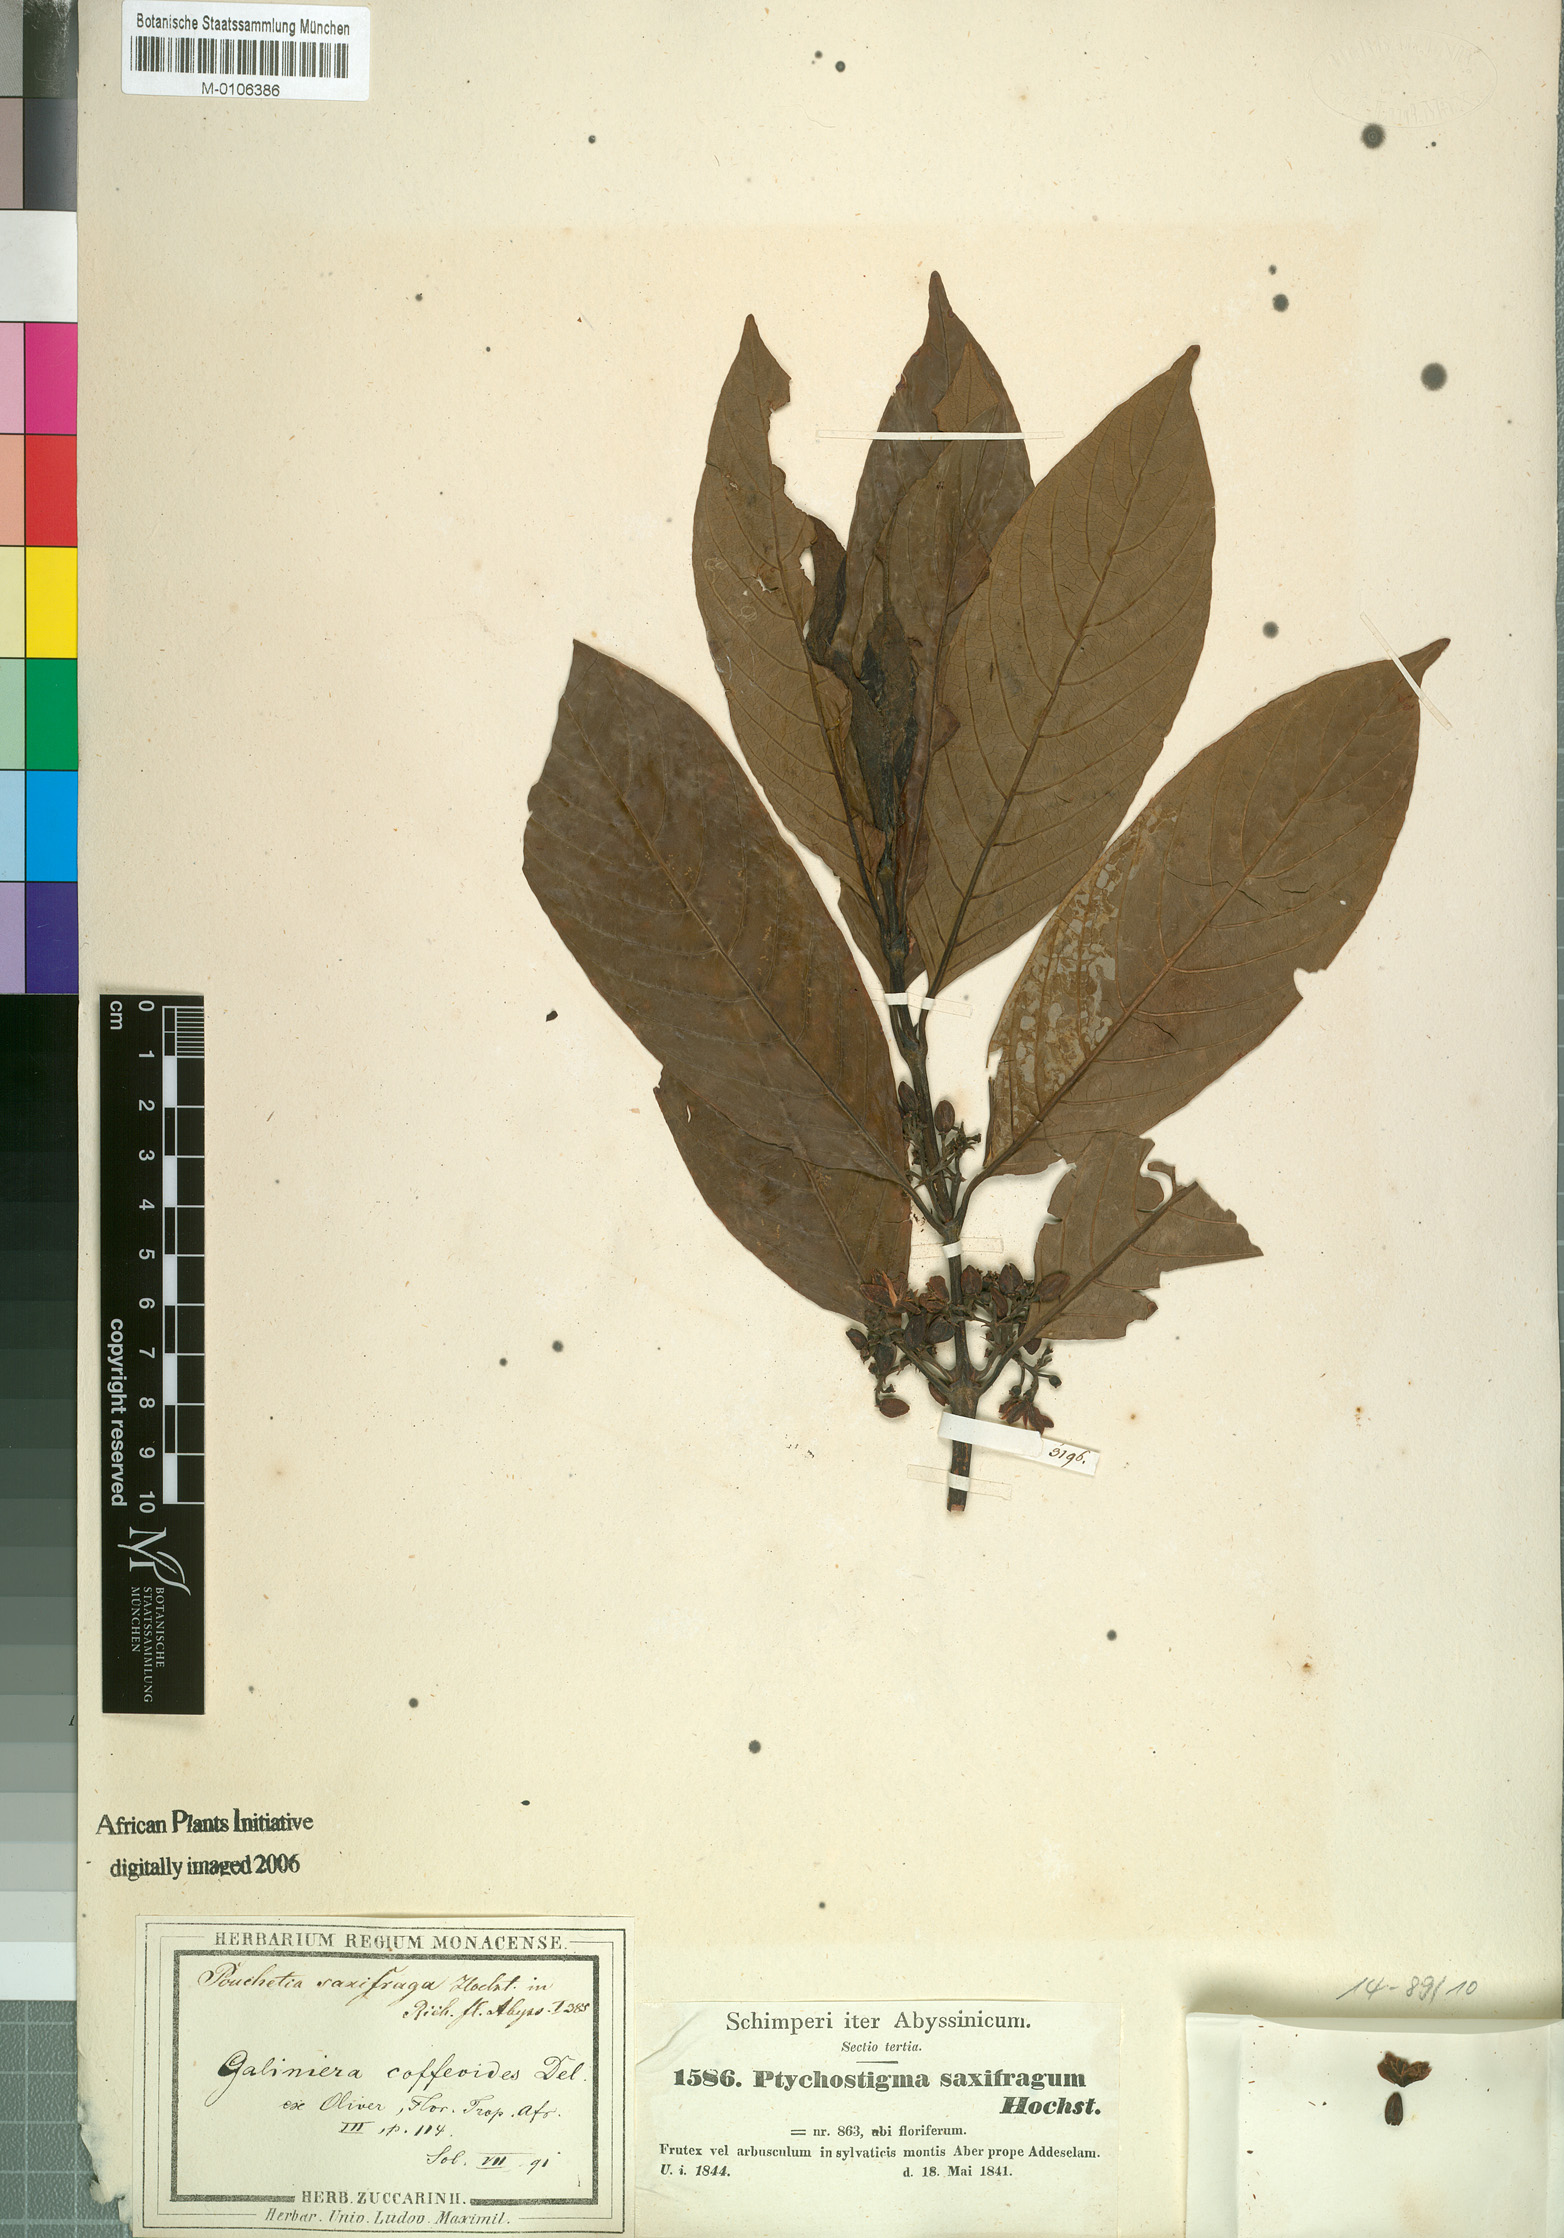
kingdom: Plantae
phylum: Tracheophyta
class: Magnoliopsida
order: Gentianales
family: Rubiaceae
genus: Pouchetia
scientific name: Pouchetia saxifraga
